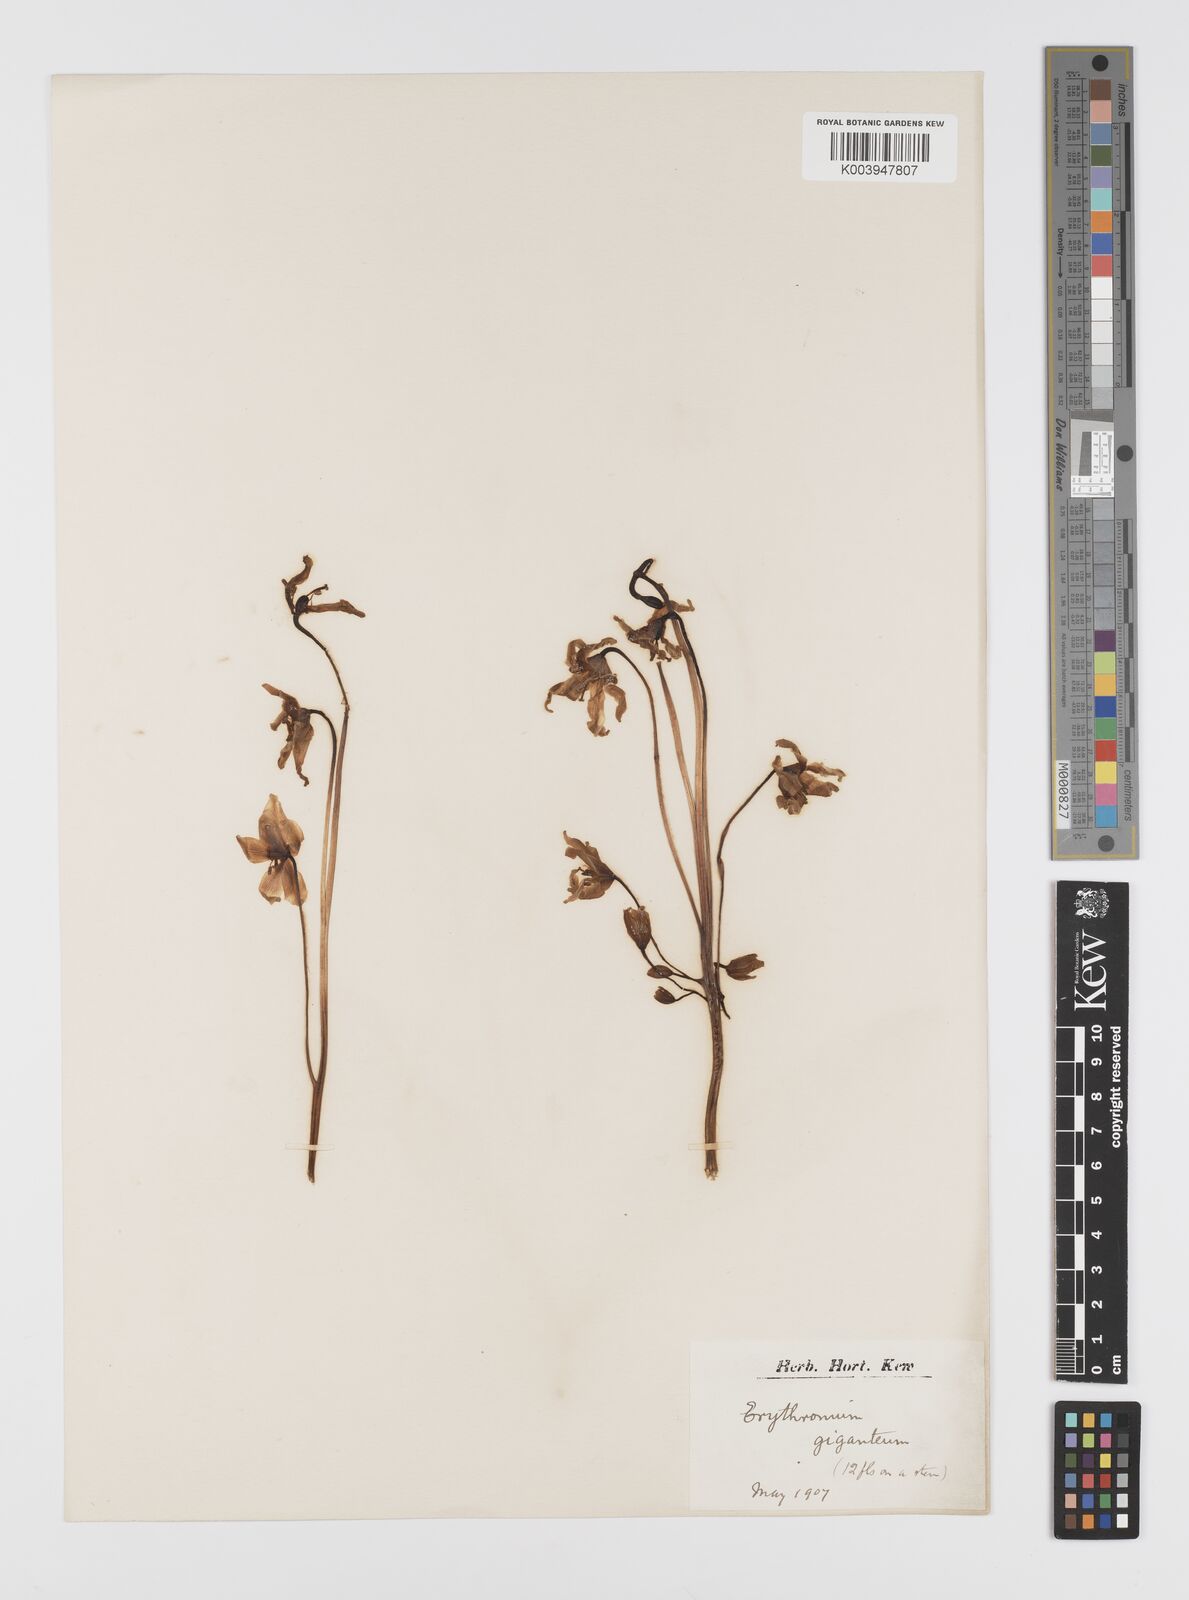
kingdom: Plantae
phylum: Tracheophyta
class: Liliopsida
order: Liliales
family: Liliaceae
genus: Erythronium
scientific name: Erythronium grandiflorum
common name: Avalanche-lily
